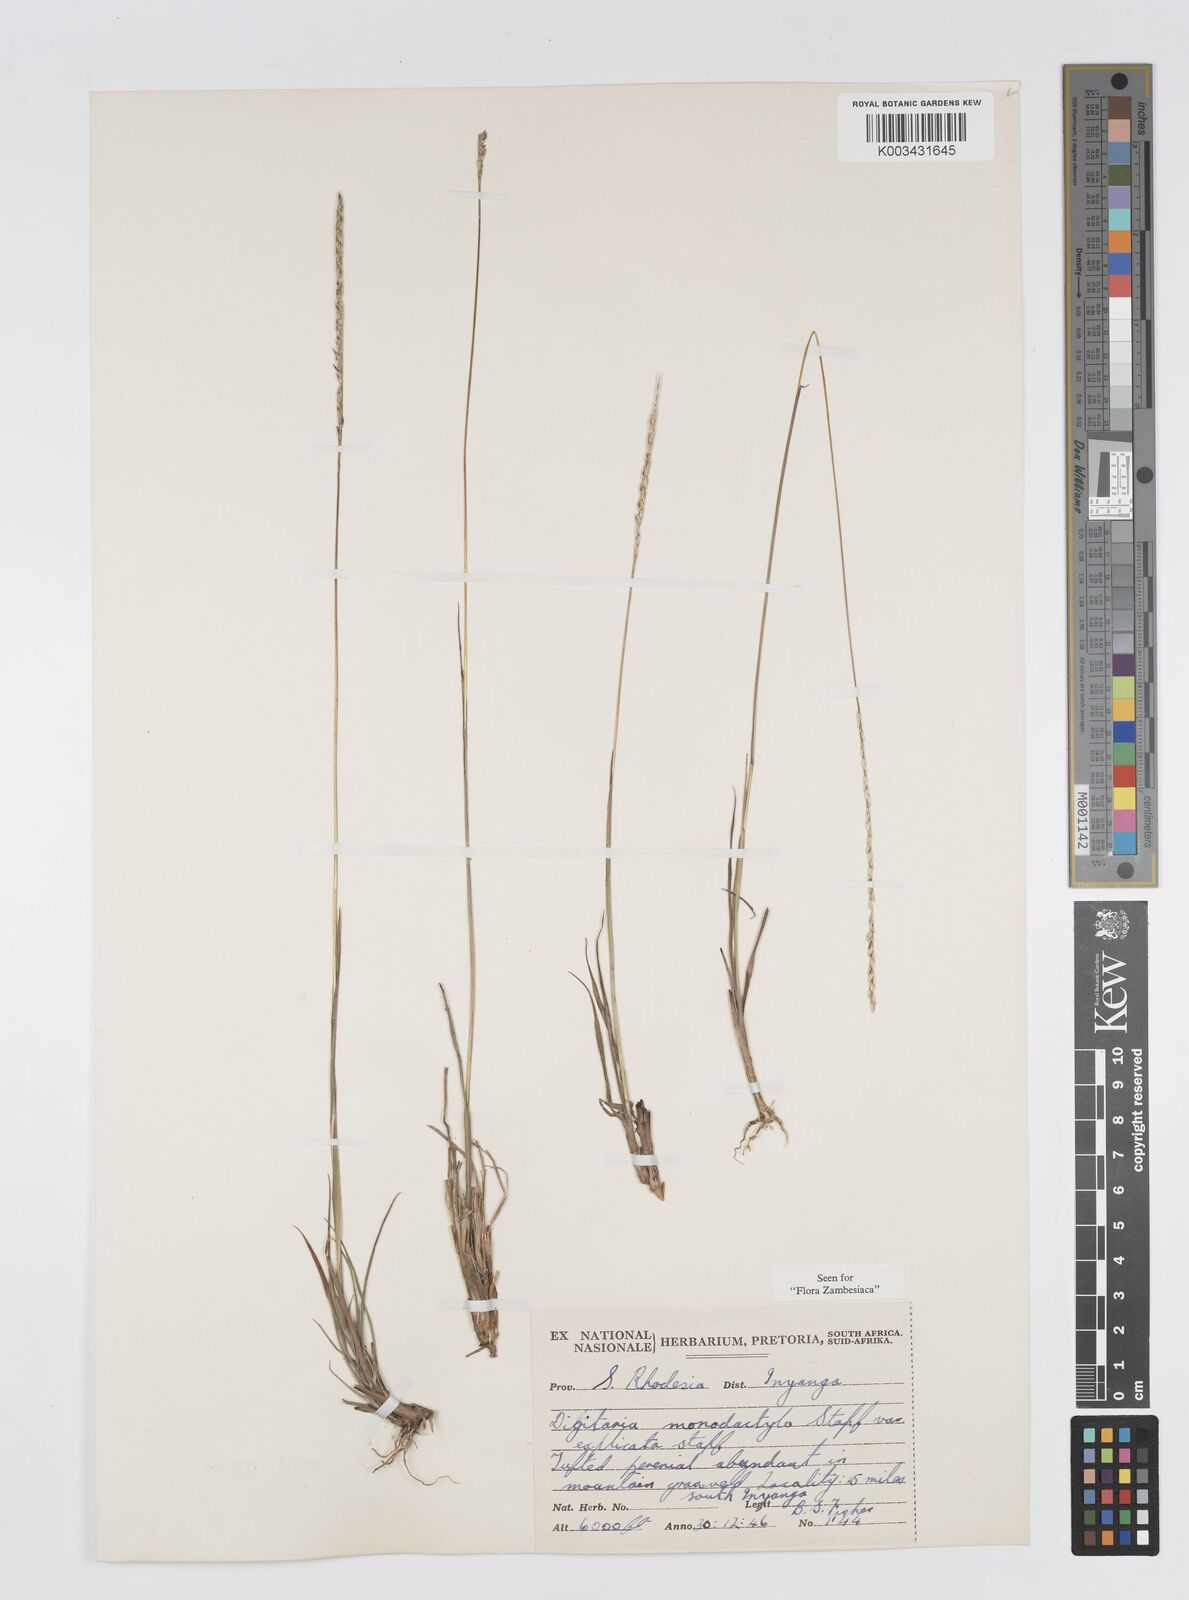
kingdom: Plantae
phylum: Tracheophyta
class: Liliopsida
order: Poales
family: Poaceae
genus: Digitaria
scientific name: Digitaria monodactyla
